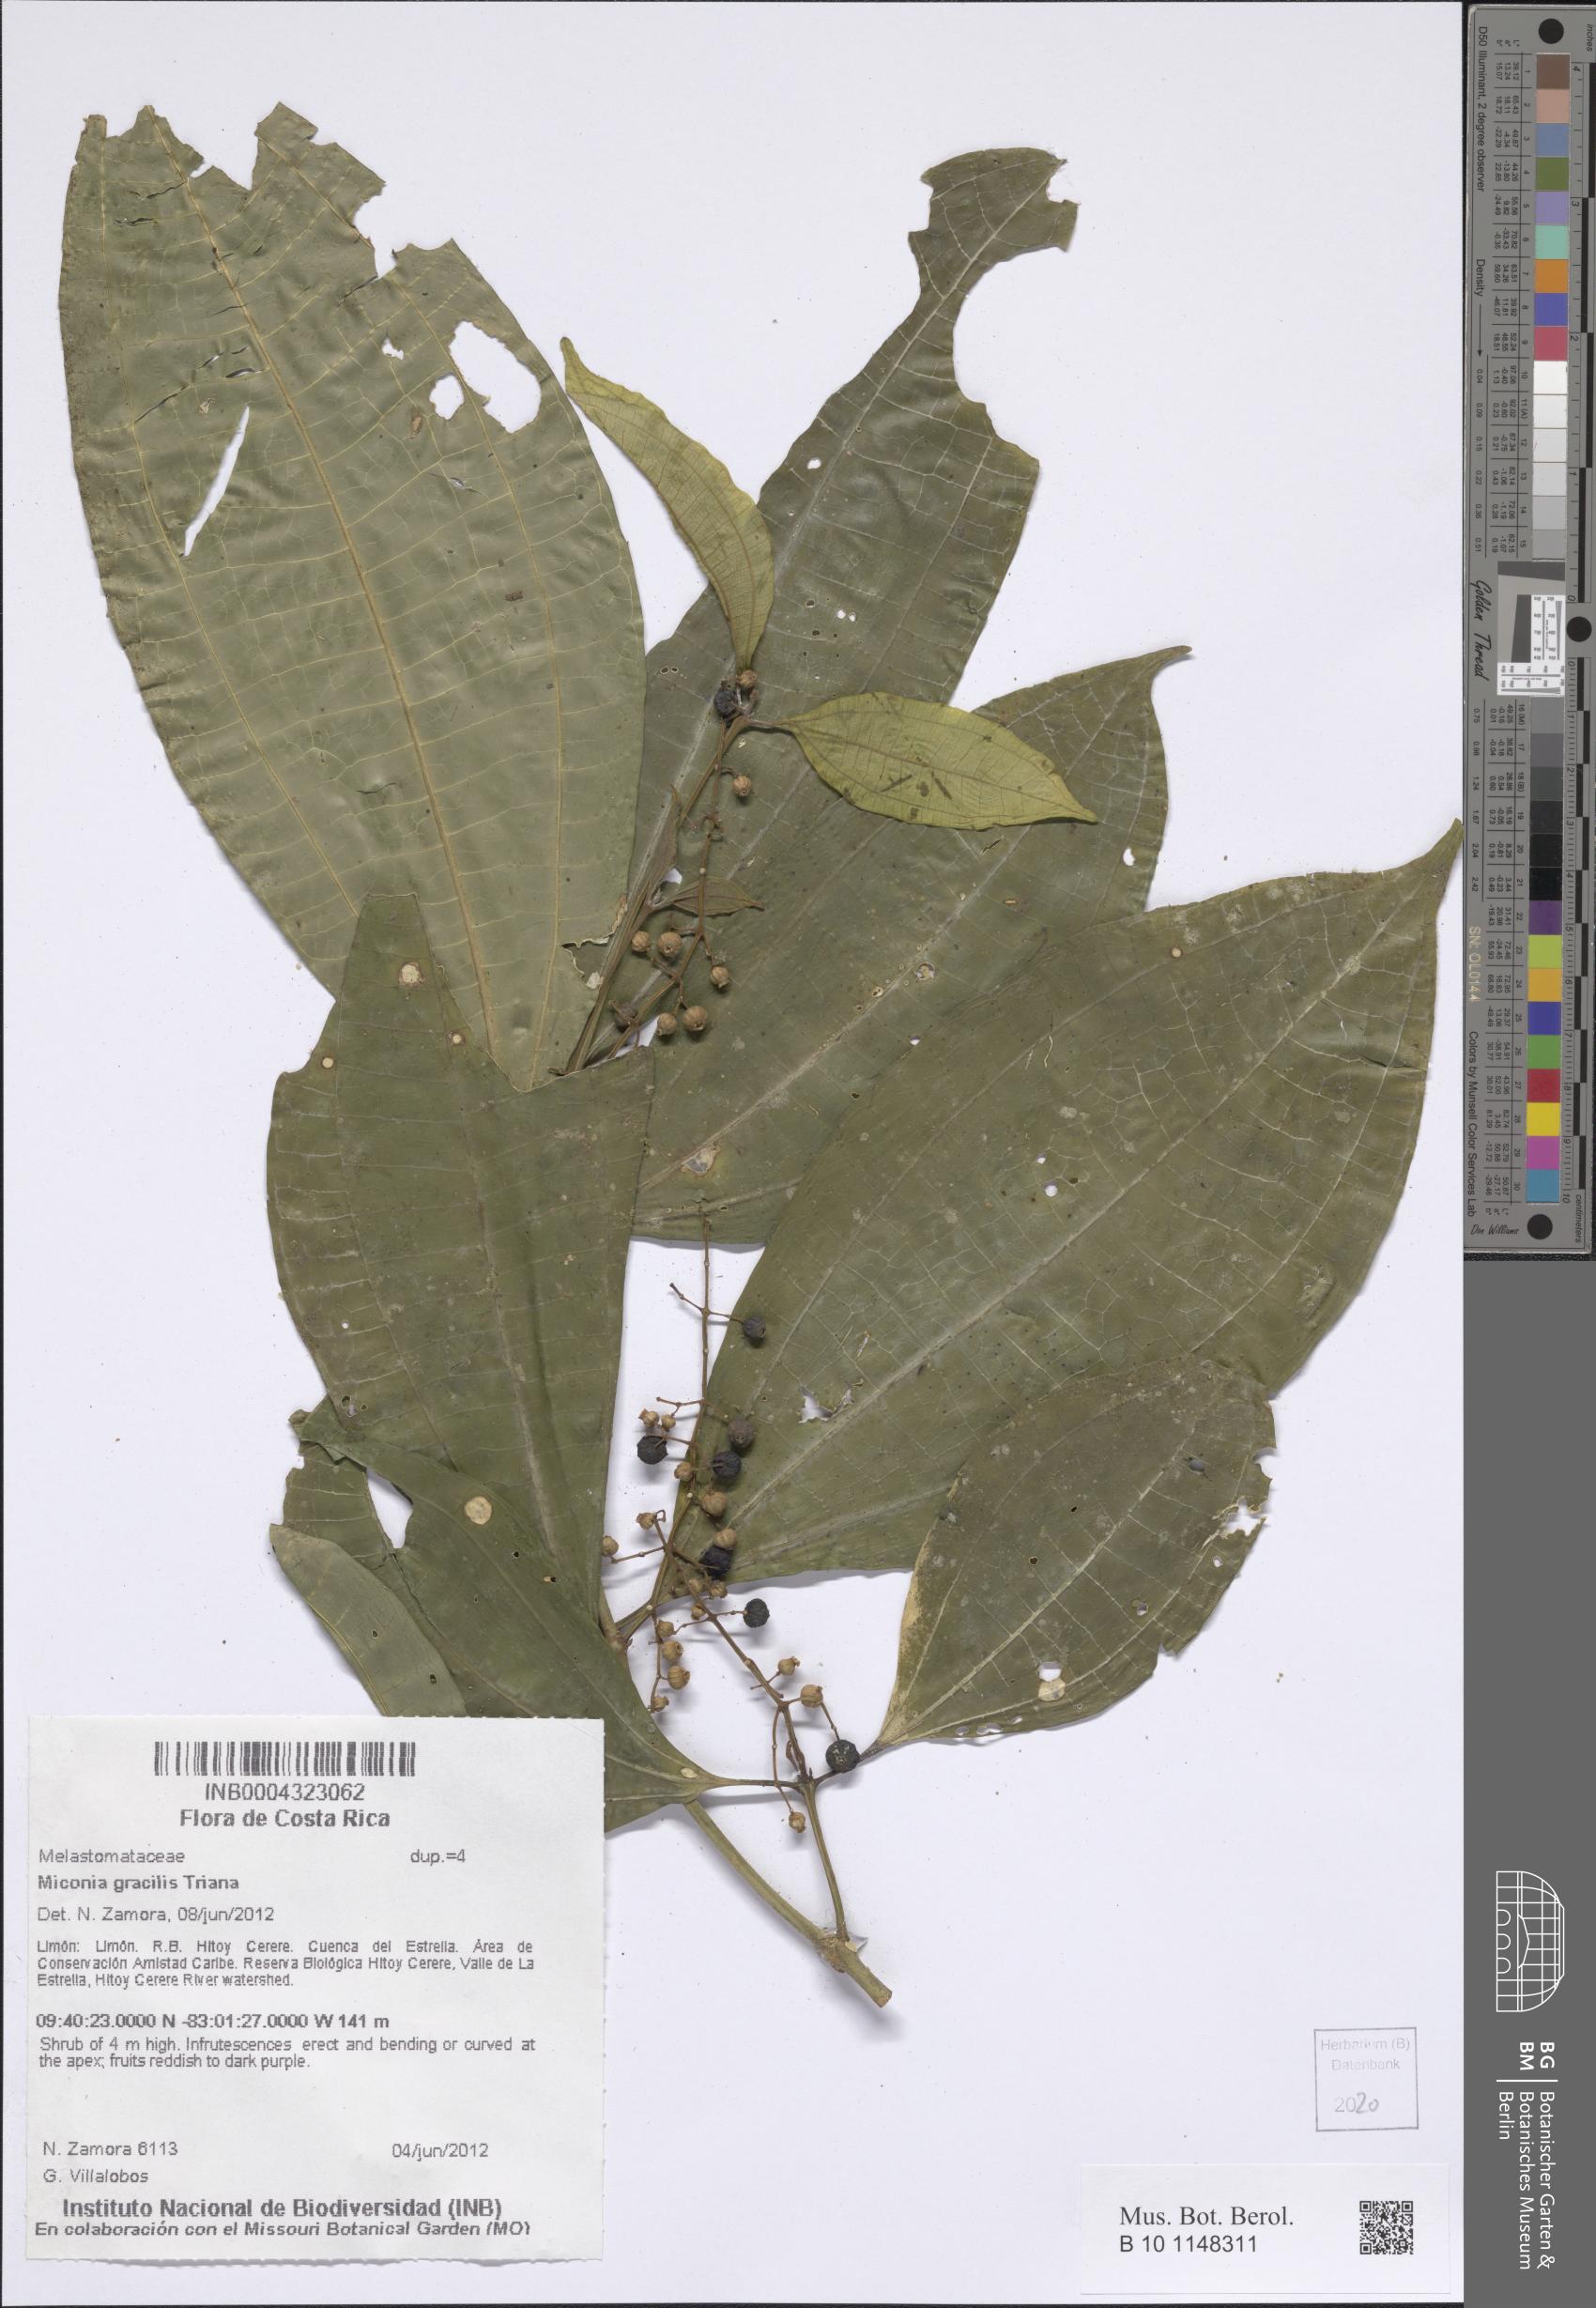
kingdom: Plantae
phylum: Tracheophyta
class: Magnoliopsida
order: Myrtales
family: Melastomataceae
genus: Miconia
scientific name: Miconia gracilis
